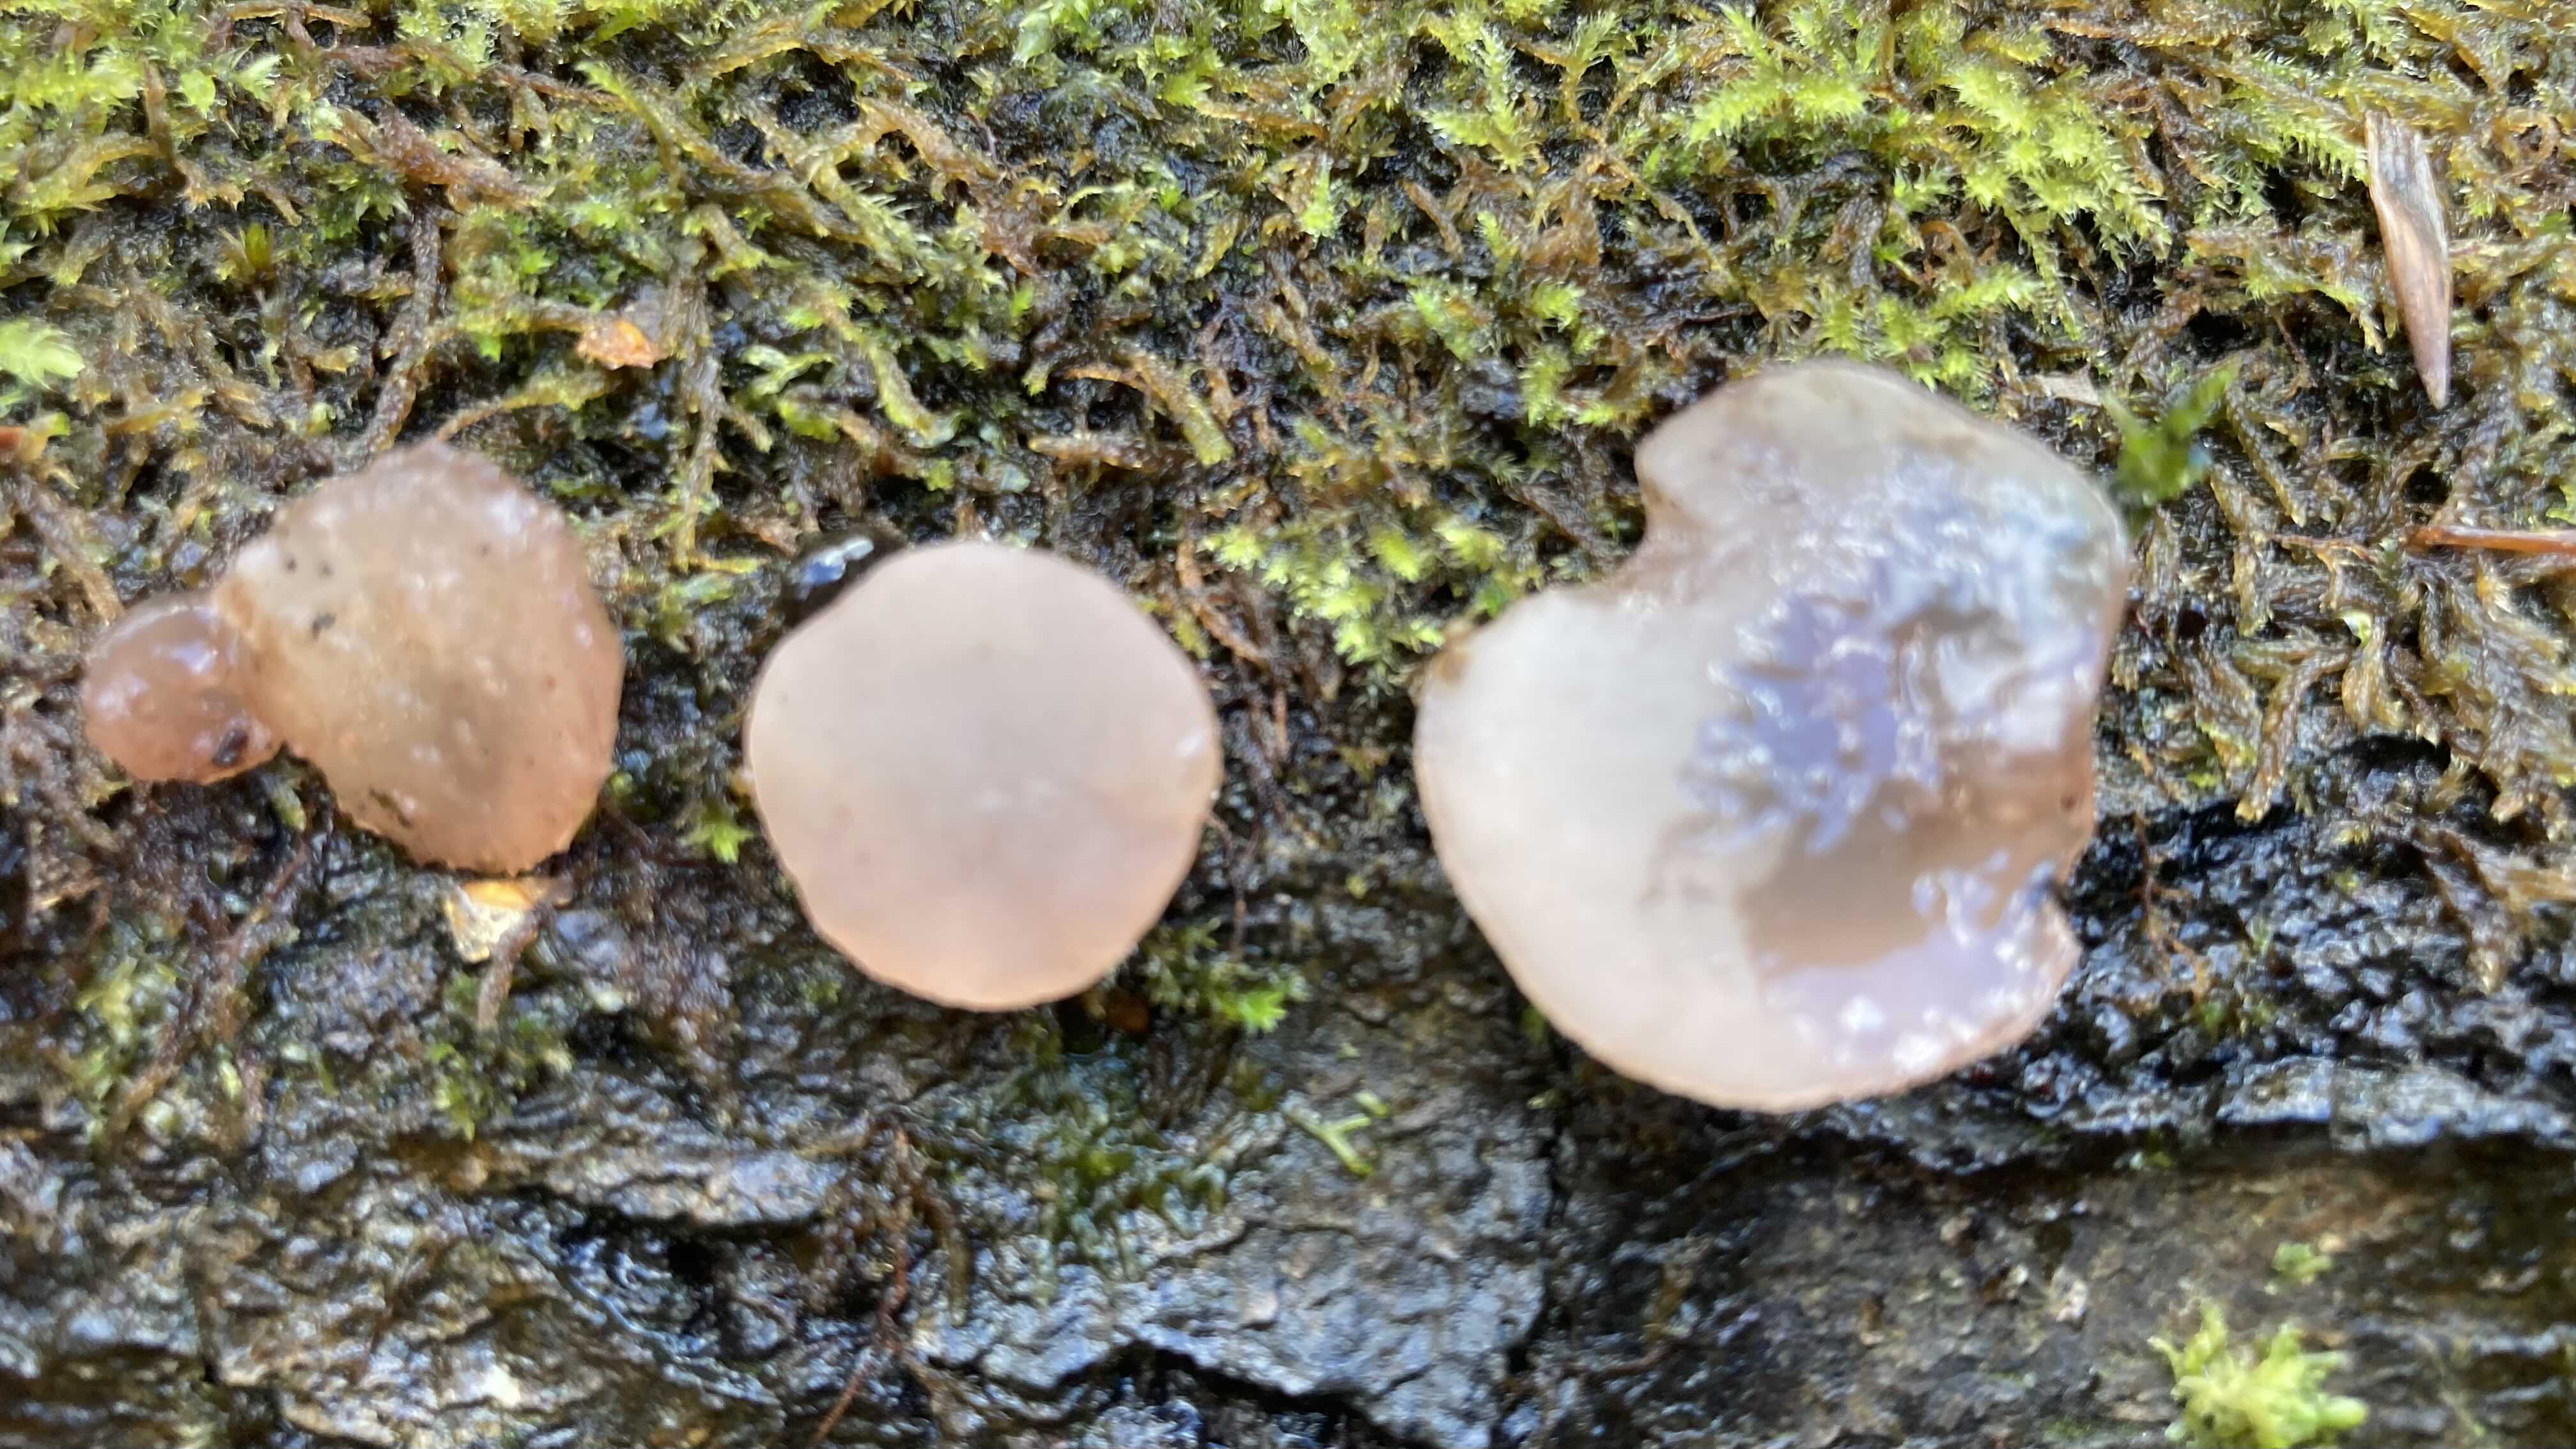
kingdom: Fungi
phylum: Ascomycota
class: Leotiomycetes
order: Helotiales
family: Gelatinodiscaceae
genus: Neobulgaria
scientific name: Neobulgaria pura
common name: bleg bævreskive
